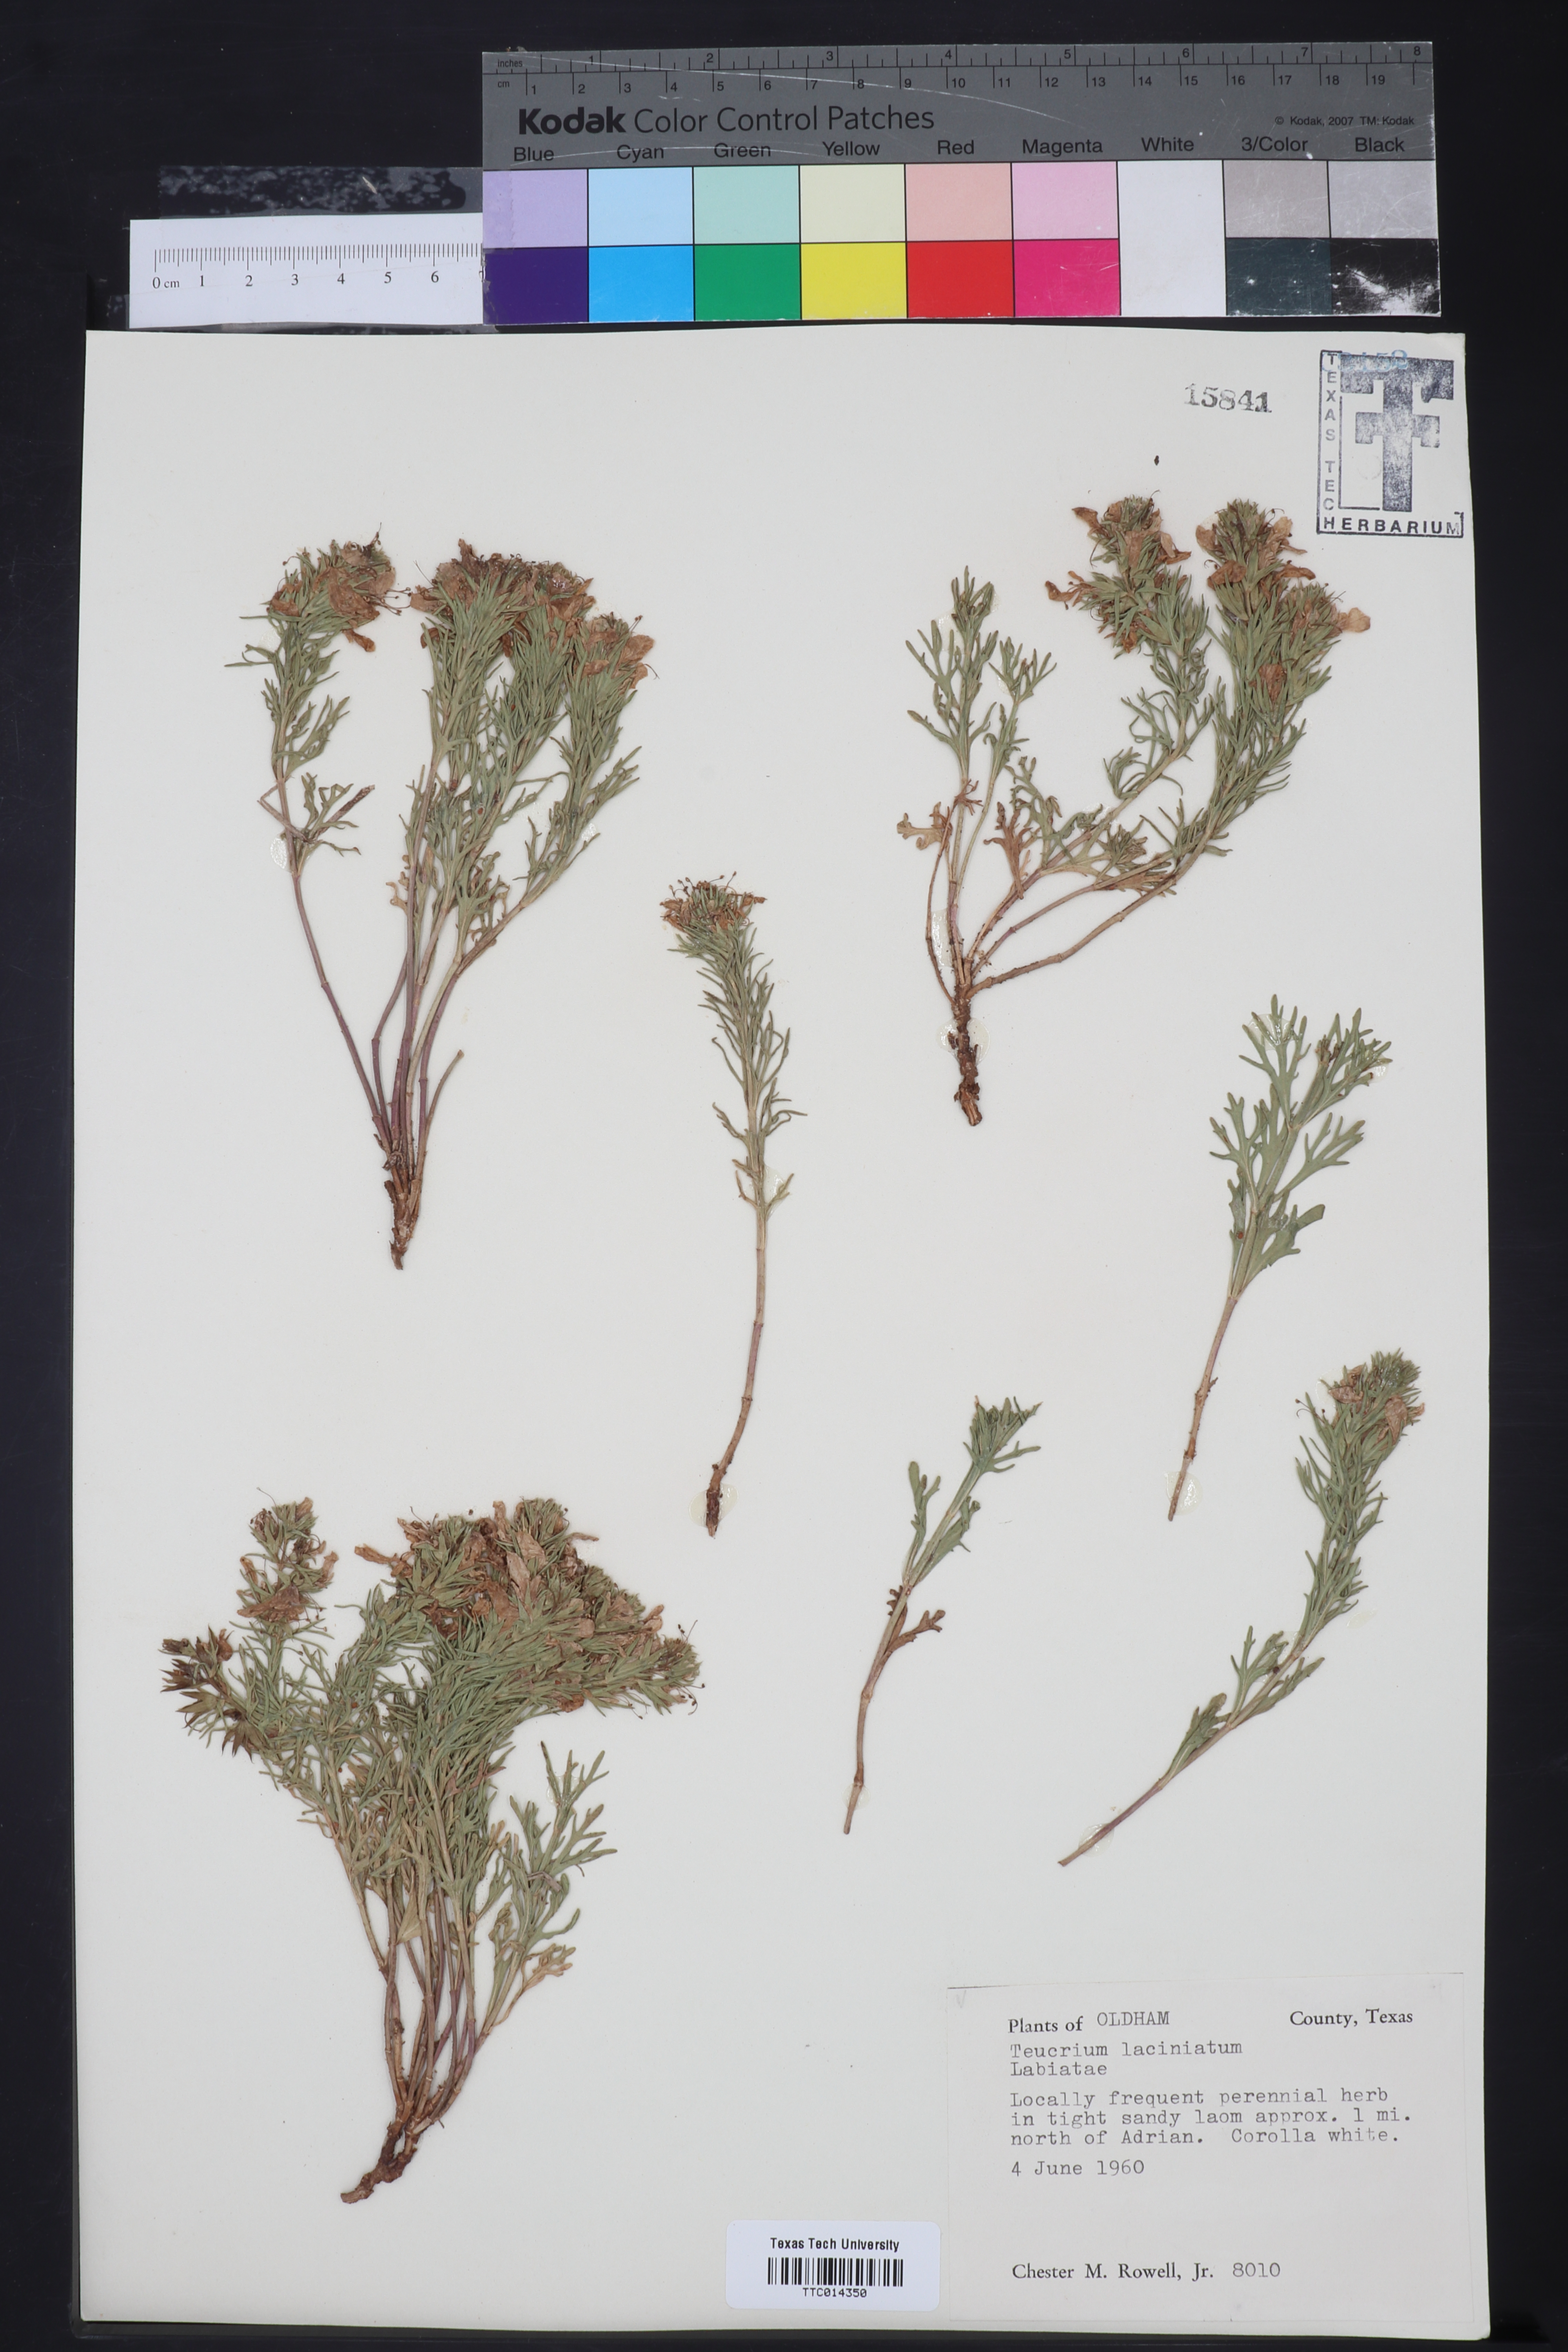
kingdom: Plantae
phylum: Tracheophyta
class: Magnoliopsida
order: Lamiales
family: Lamiaceae
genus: Teucrium
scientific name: Teucrium laciniatum
